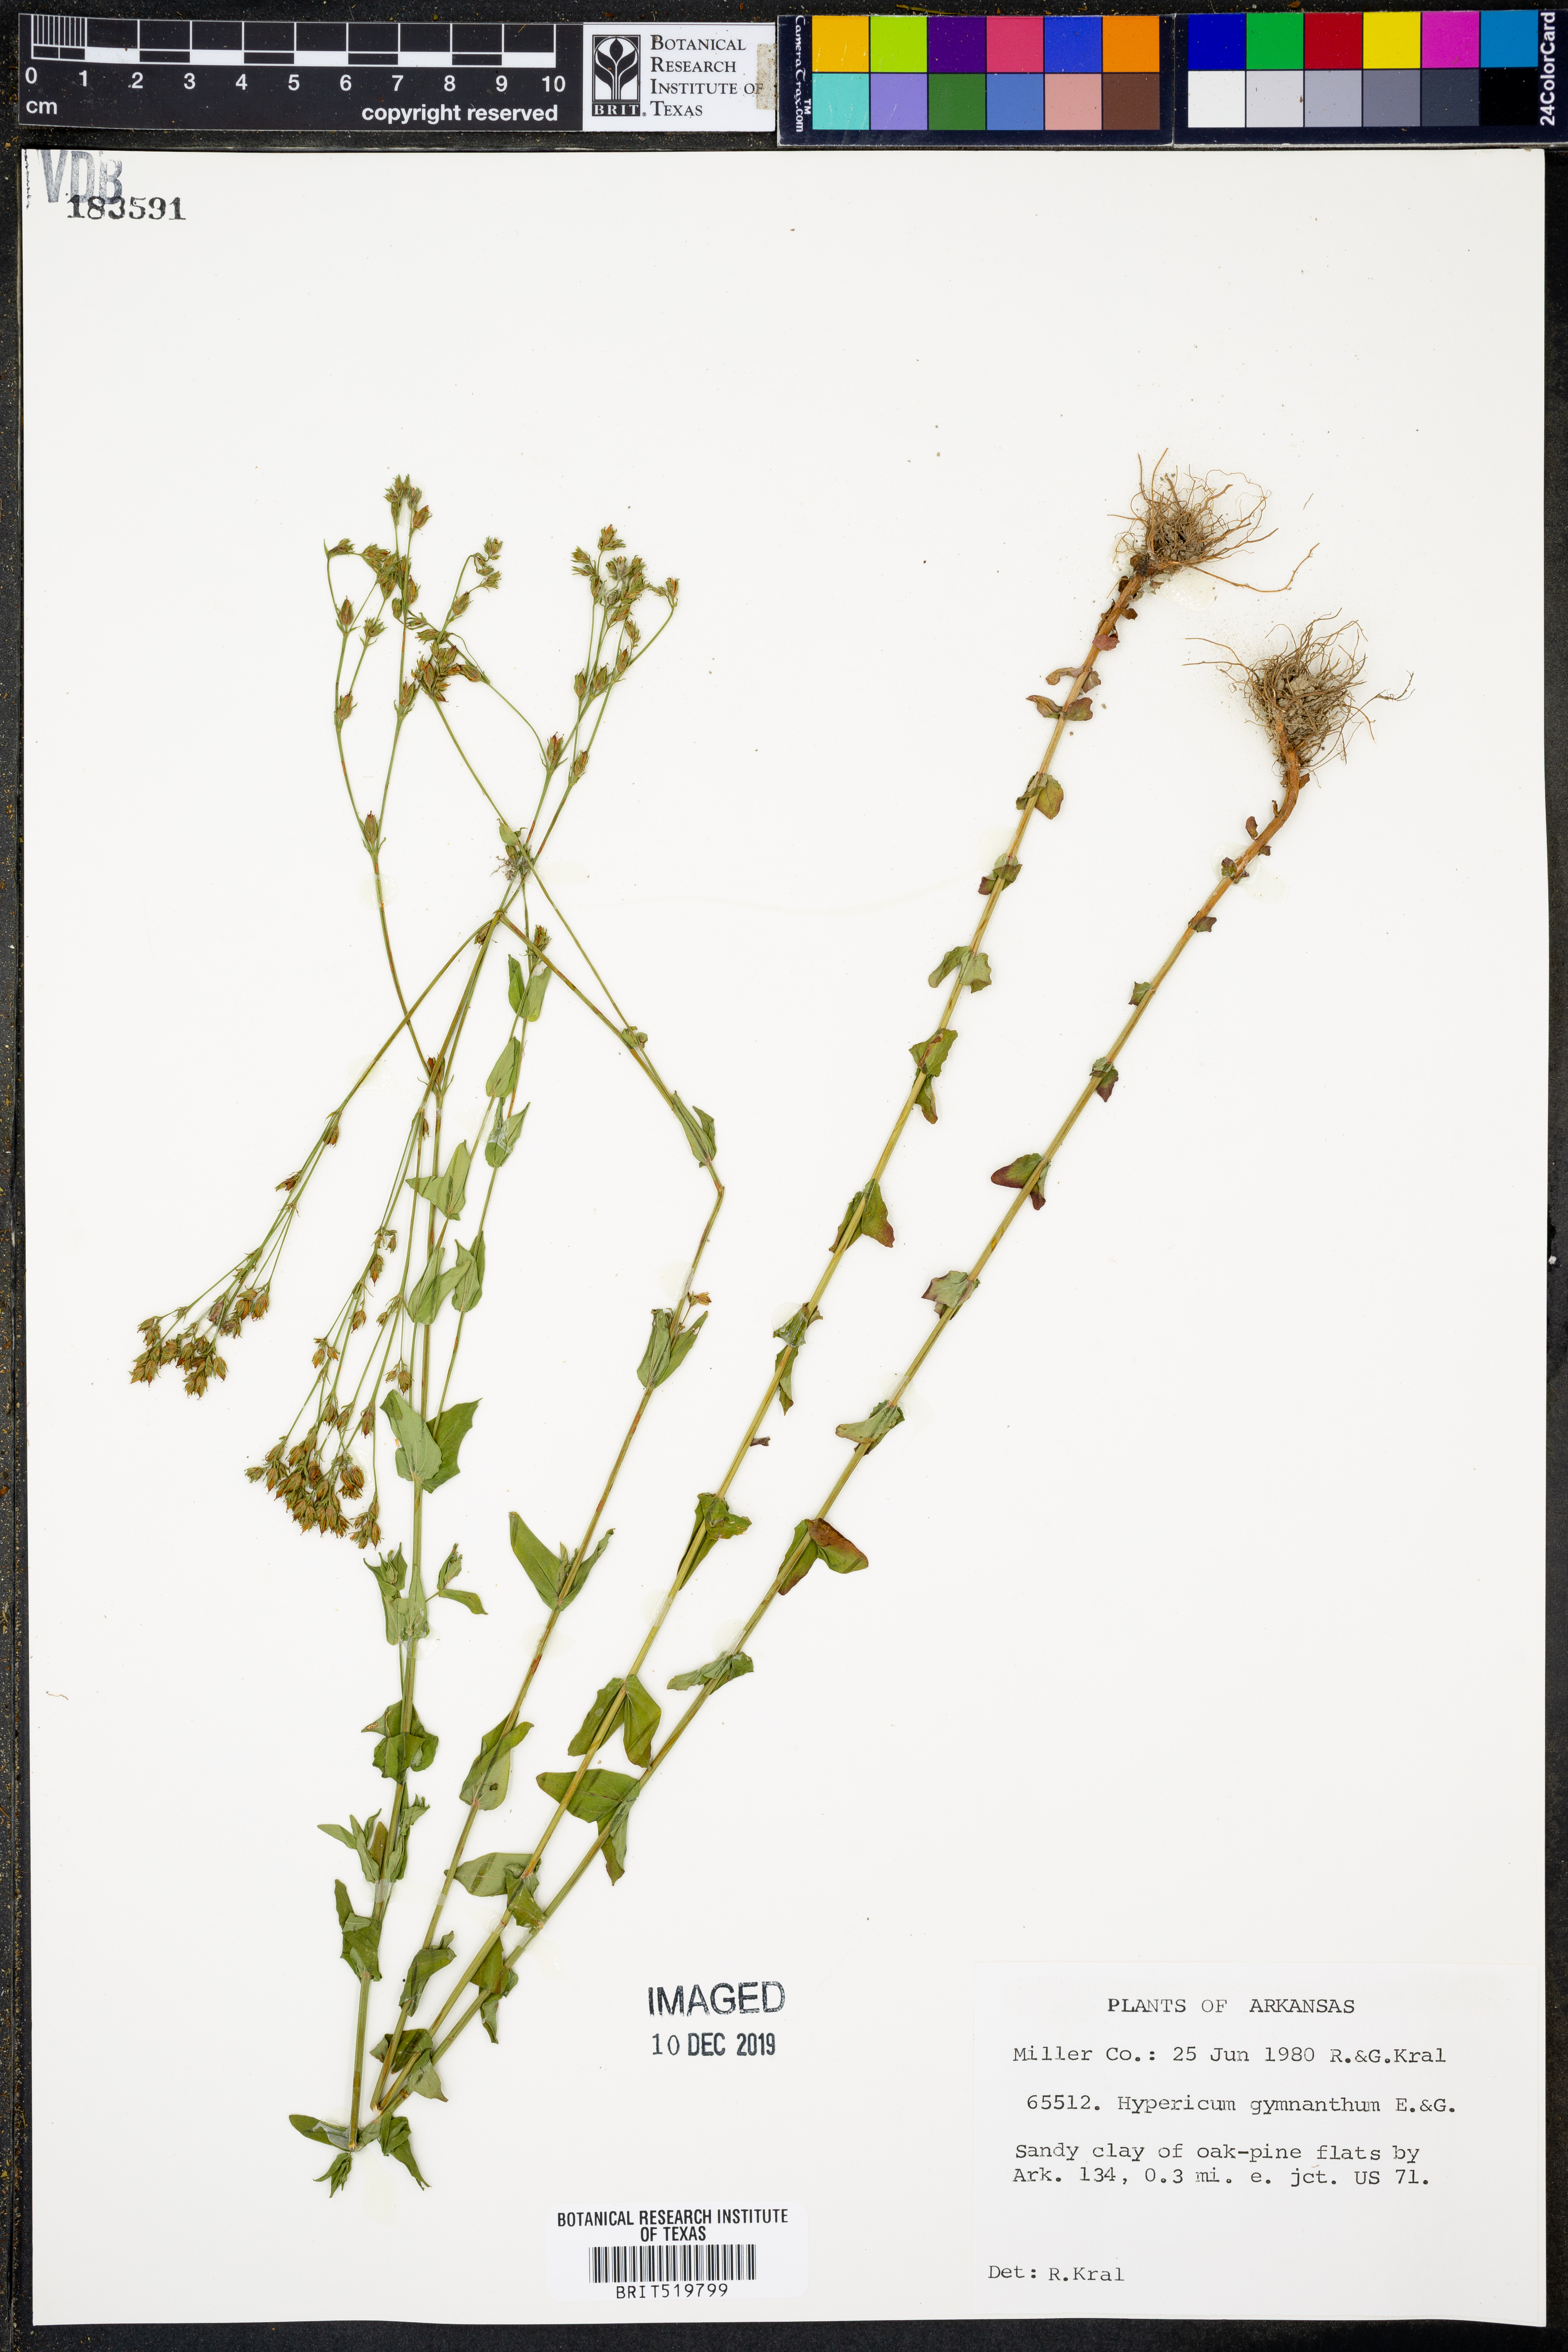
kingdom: Plantae
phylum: Tracheophyta
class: Magnoliopsida
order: Malpighiales
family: Hypericaceae
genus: Hypericum
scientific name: Hypericum gymnanthum
